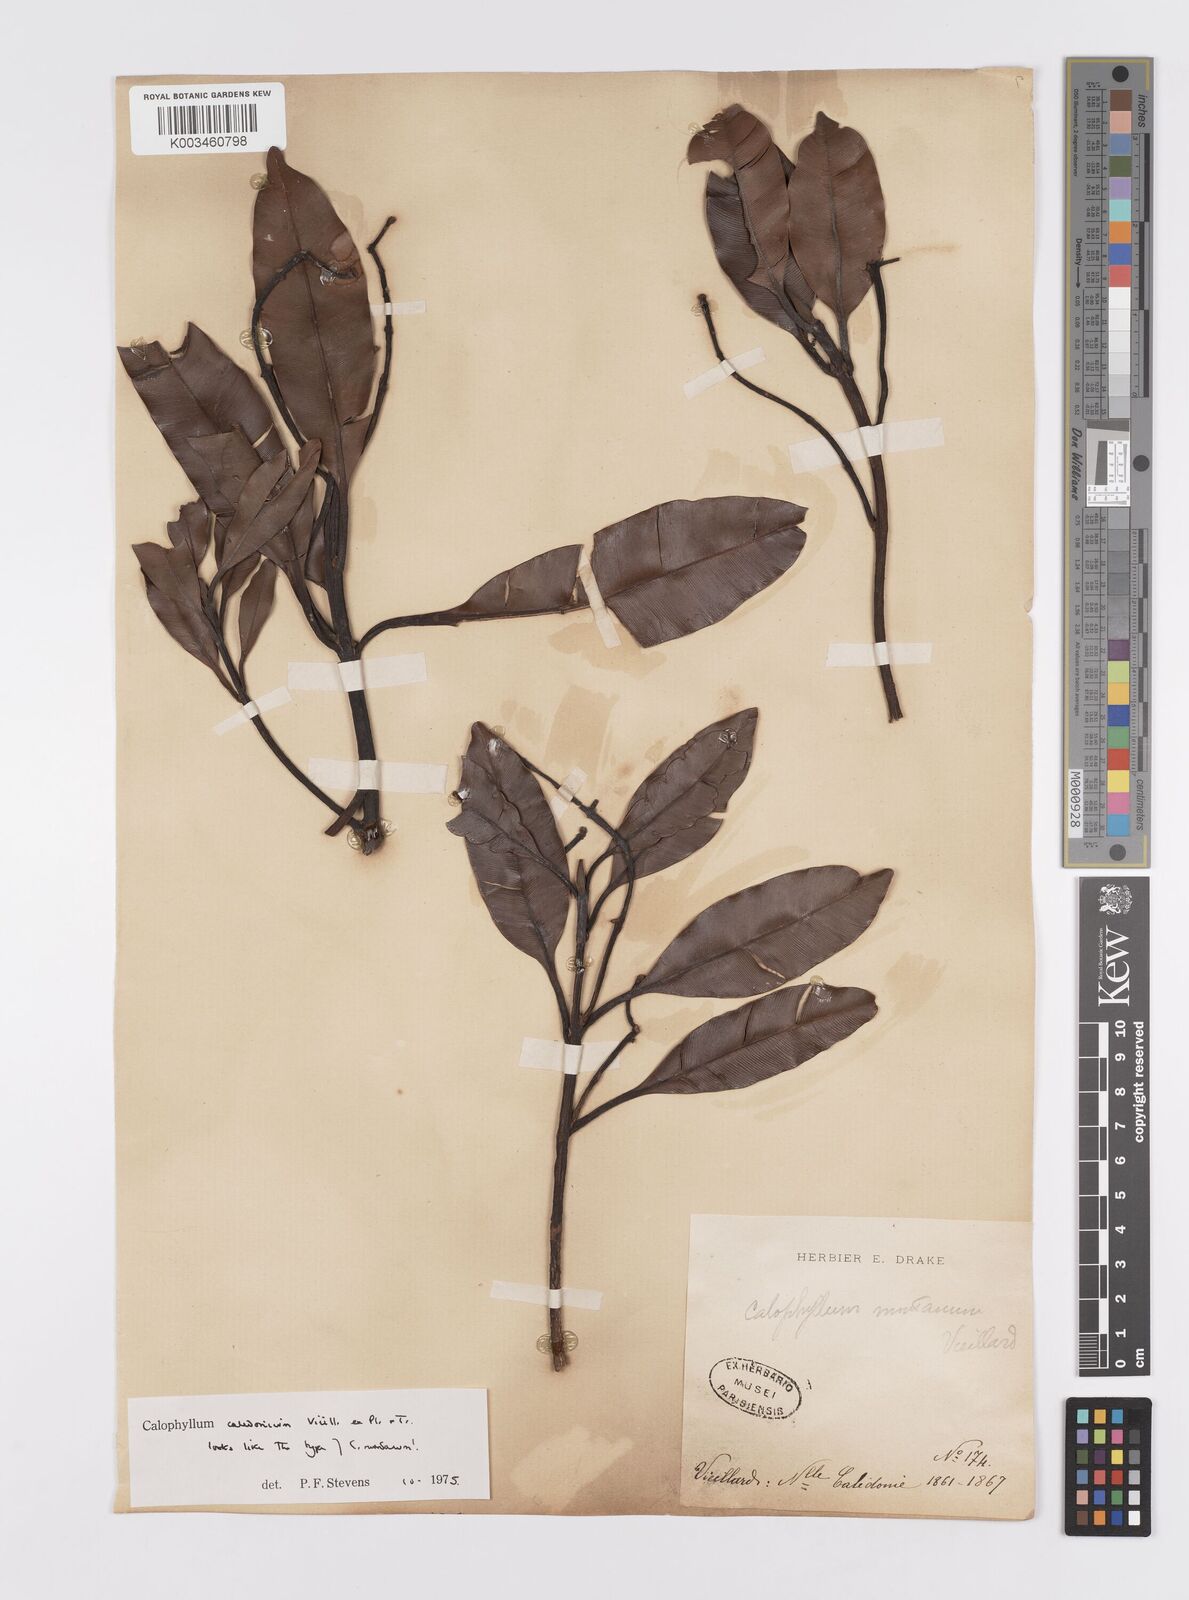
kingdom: Plantae
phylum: Tracheophyta
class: Magnoliopsida
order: Malpighiales
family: Calophyllaceae
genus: Calophyllum
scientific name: Calophyllum caledonicum
